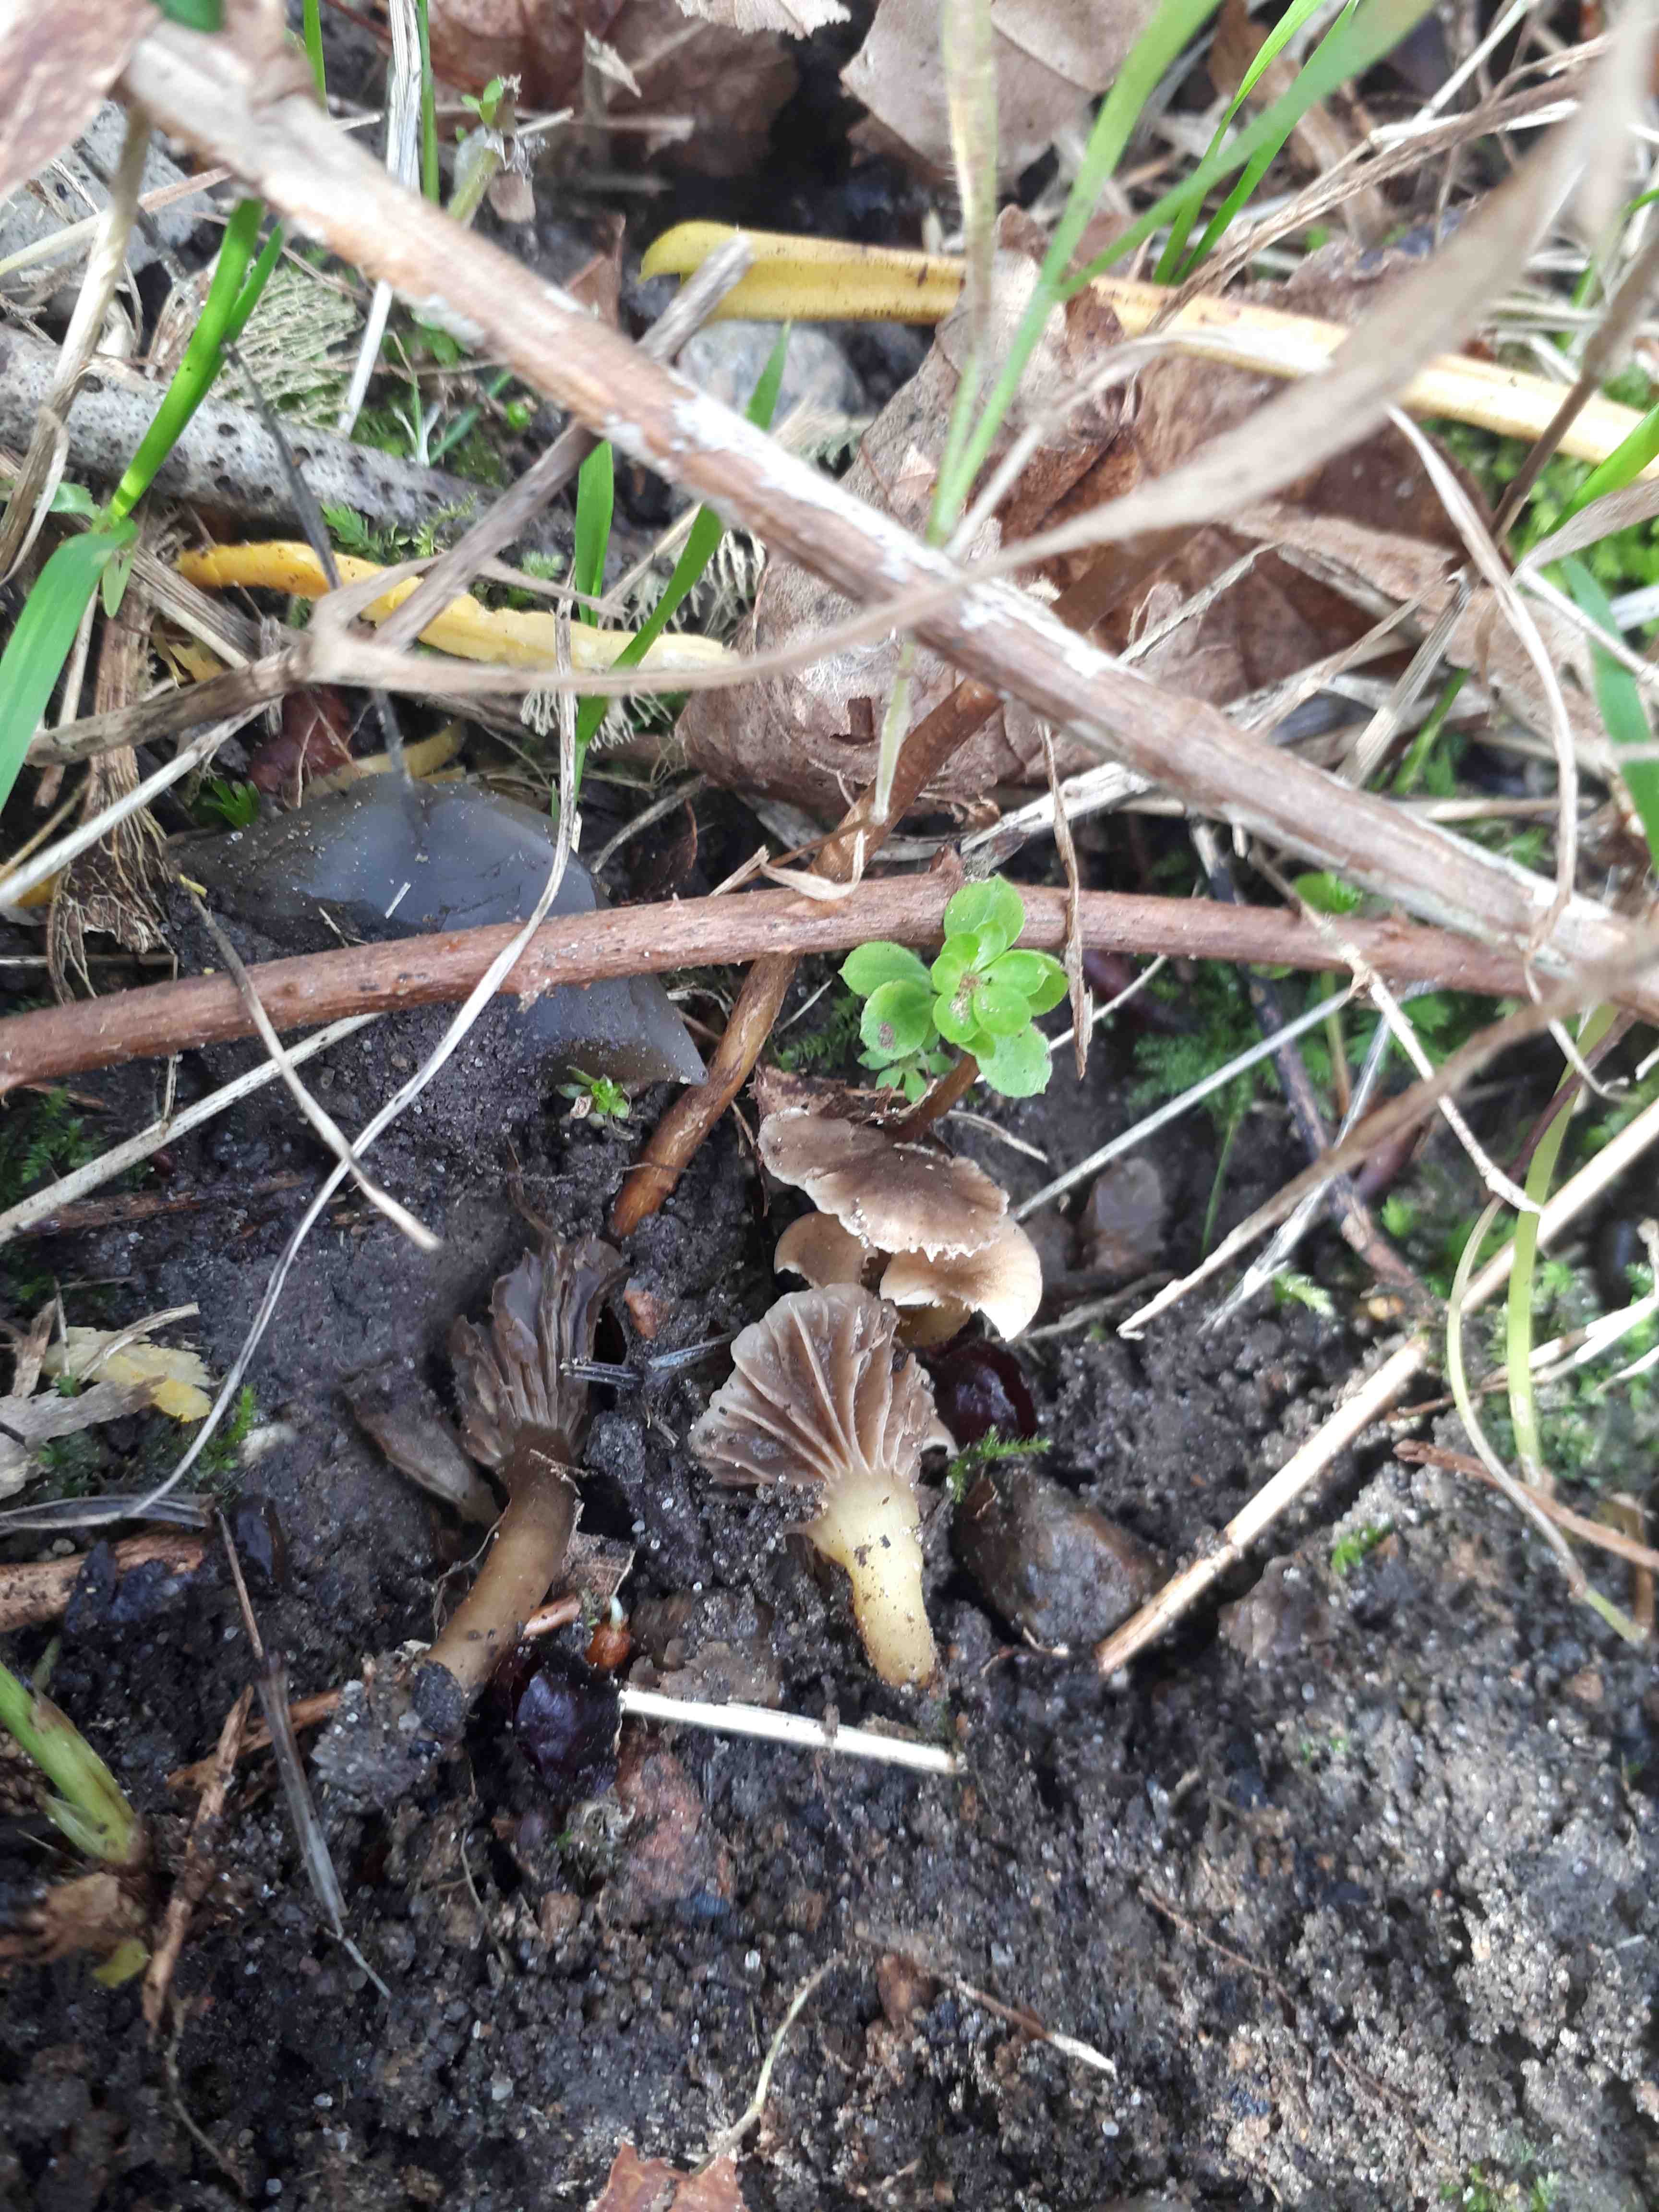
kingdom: Fungi
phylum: Basidiomycota
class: Agaricomycetes
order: Agaricales
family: Clavariaceae
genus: Hodophilus
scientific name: Hodophilus
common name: kratvokshat
